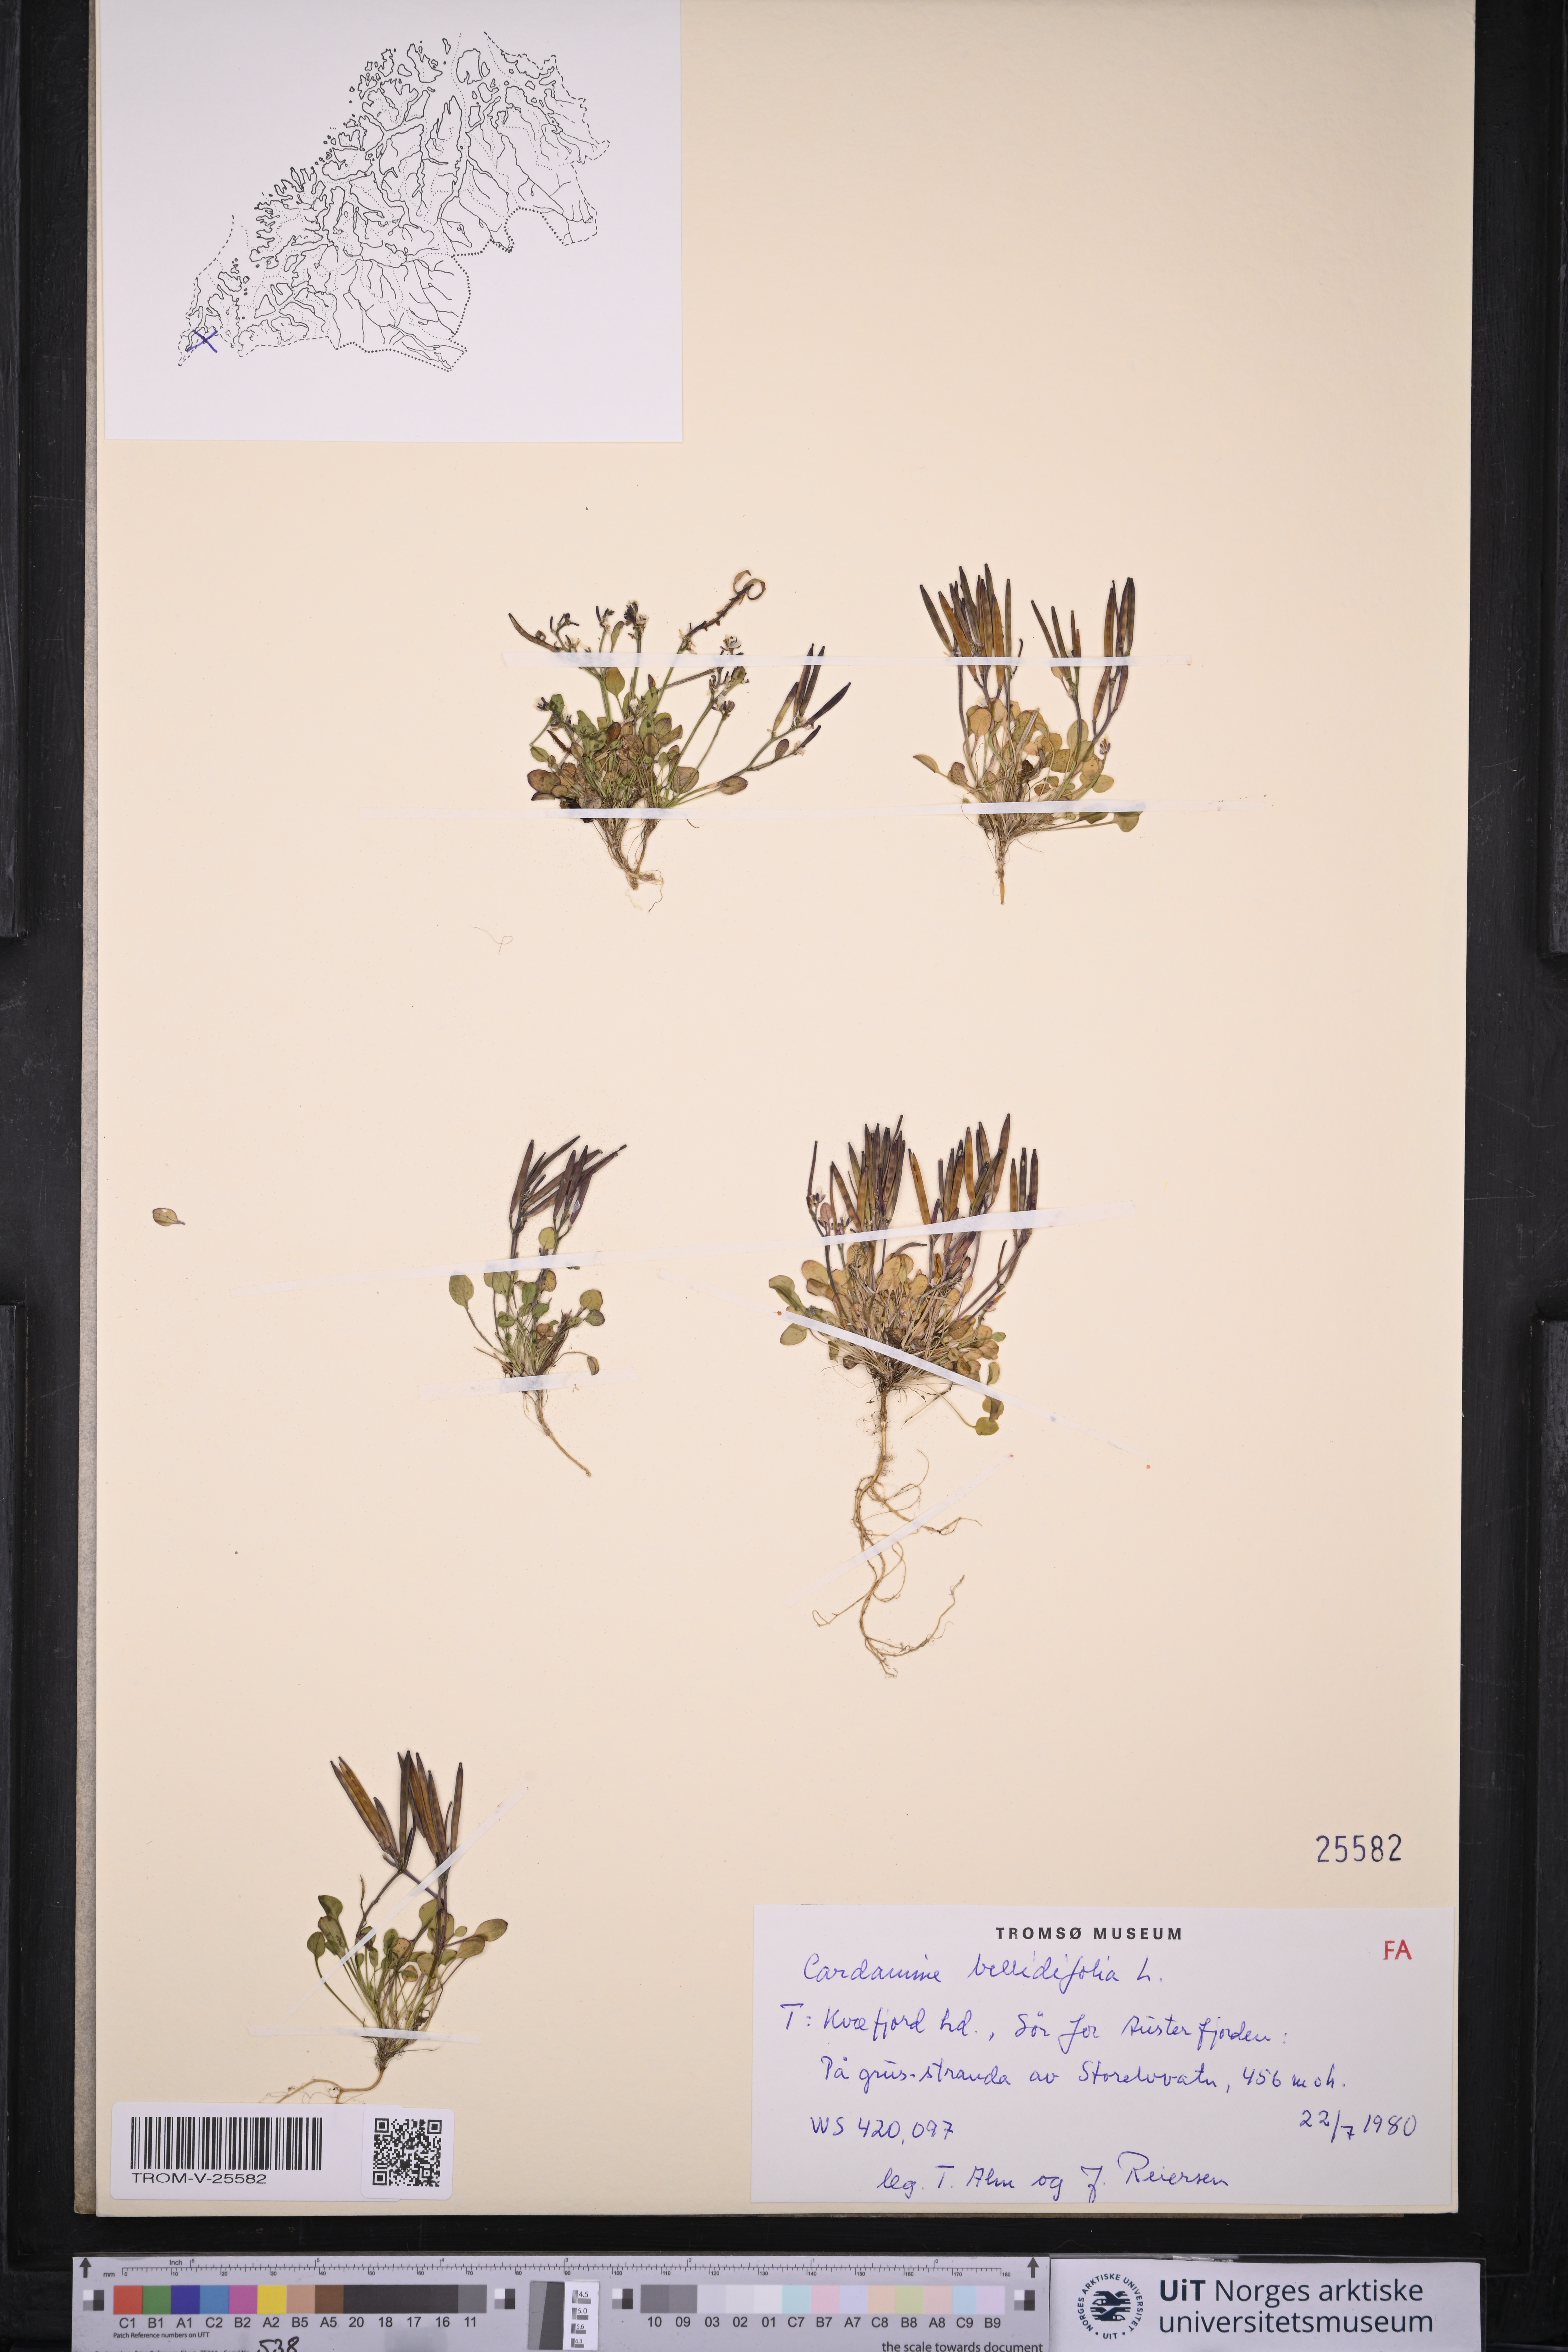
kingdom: Plantae
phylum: Tracheophyta
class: Magnoliopsida
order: Brassicales
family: Brassicaceae
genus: Cardamine
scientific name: Cardamine bellidifolia
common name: Alpine bittercress
